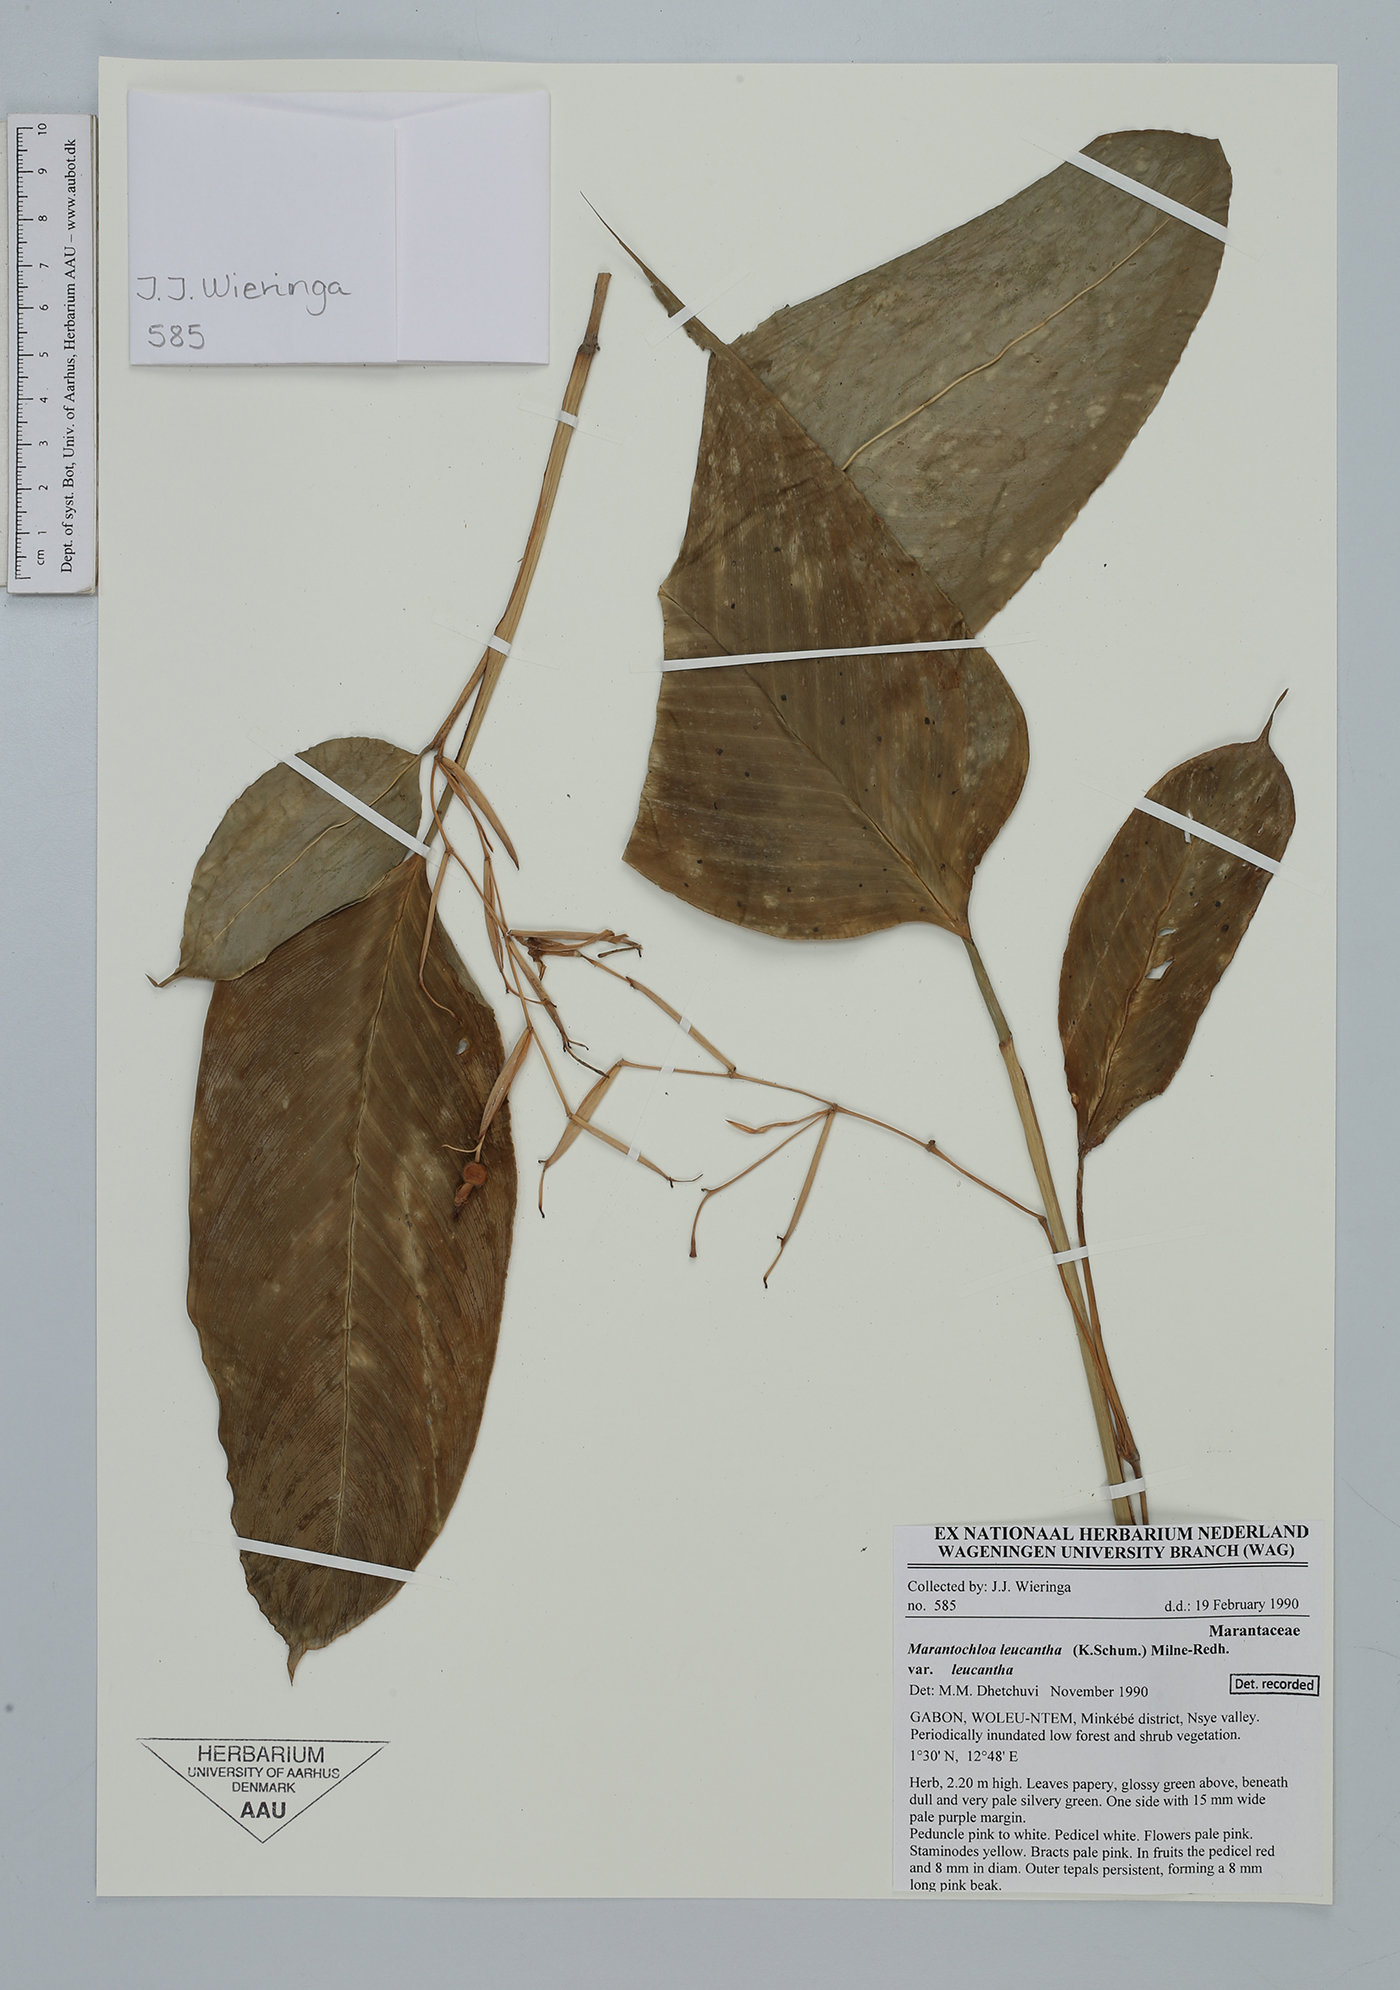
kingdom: Plantae
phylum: Tracheophyta
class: Liliopsida
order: Zingiberales
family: Marantaceae
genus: Marantochloa
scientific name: Marantochloa leucantha
